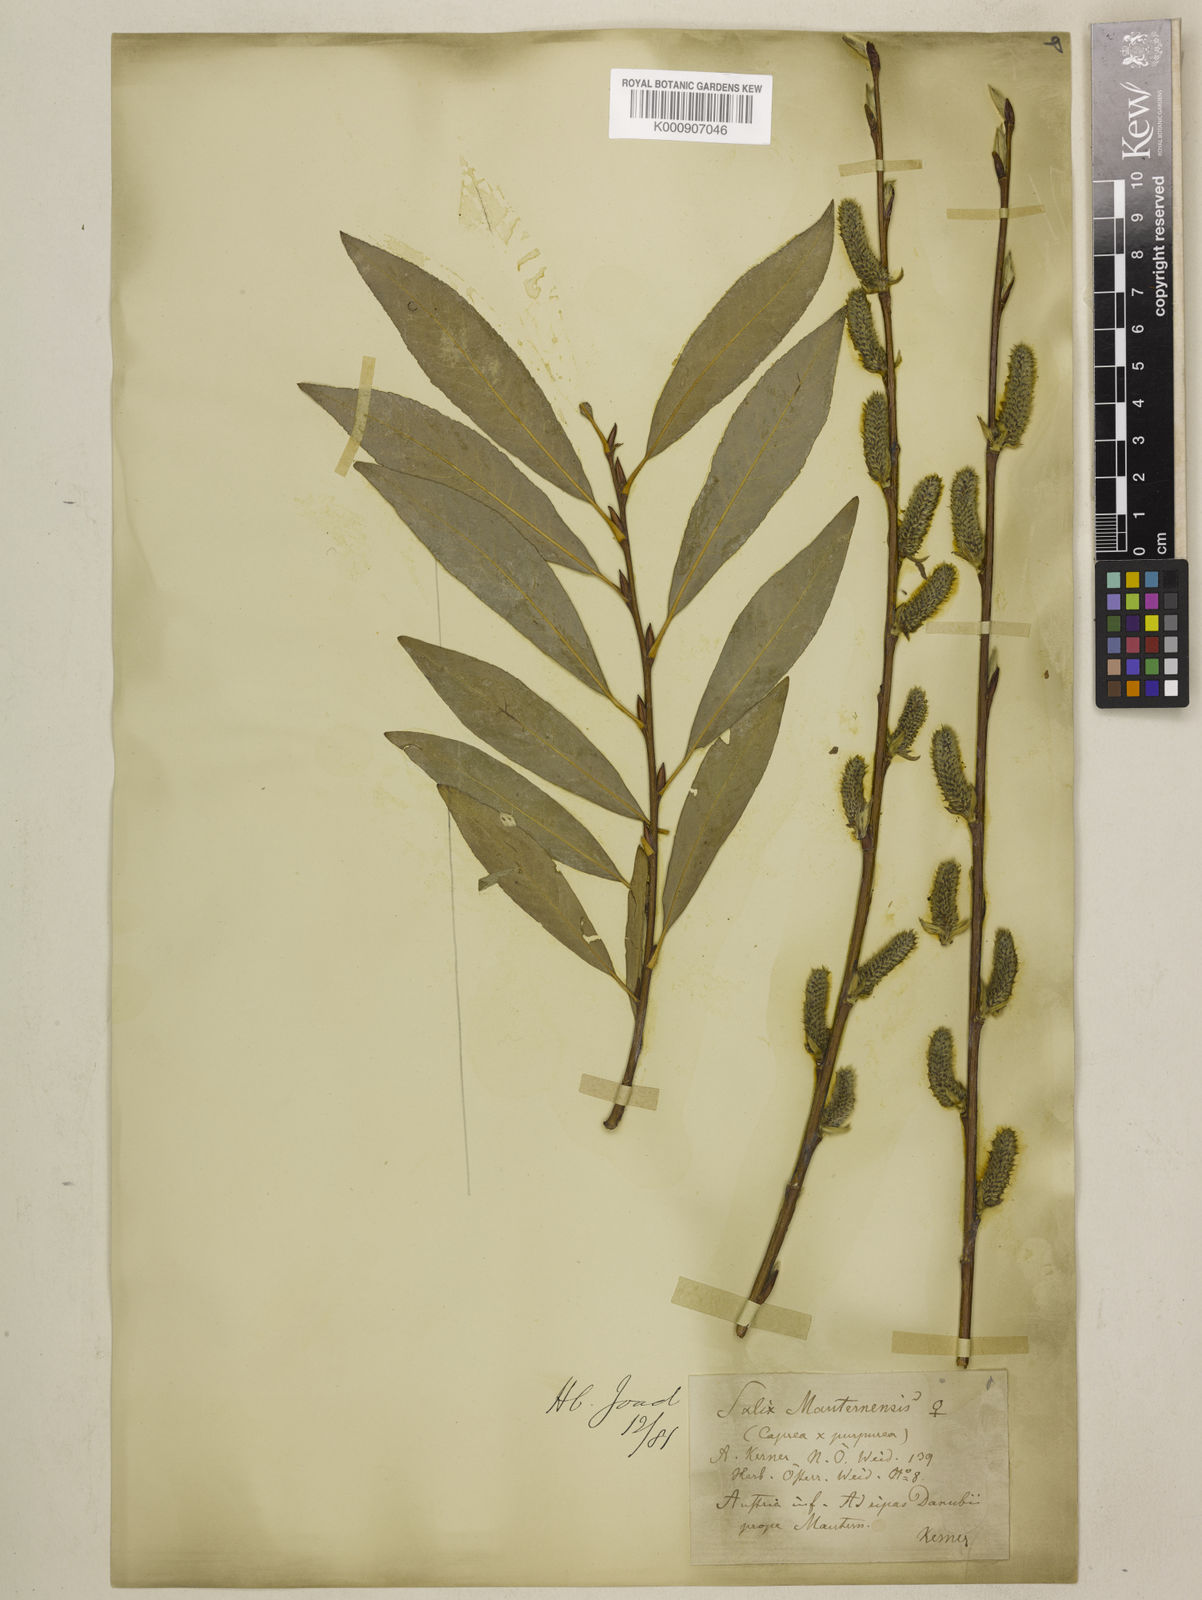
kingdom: Plantae
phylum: Tracheophyta
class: Magnoliopsida
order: Malpighiales
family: Salicaceae
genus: Salix
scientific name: Salix caprea
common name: Goat willow
